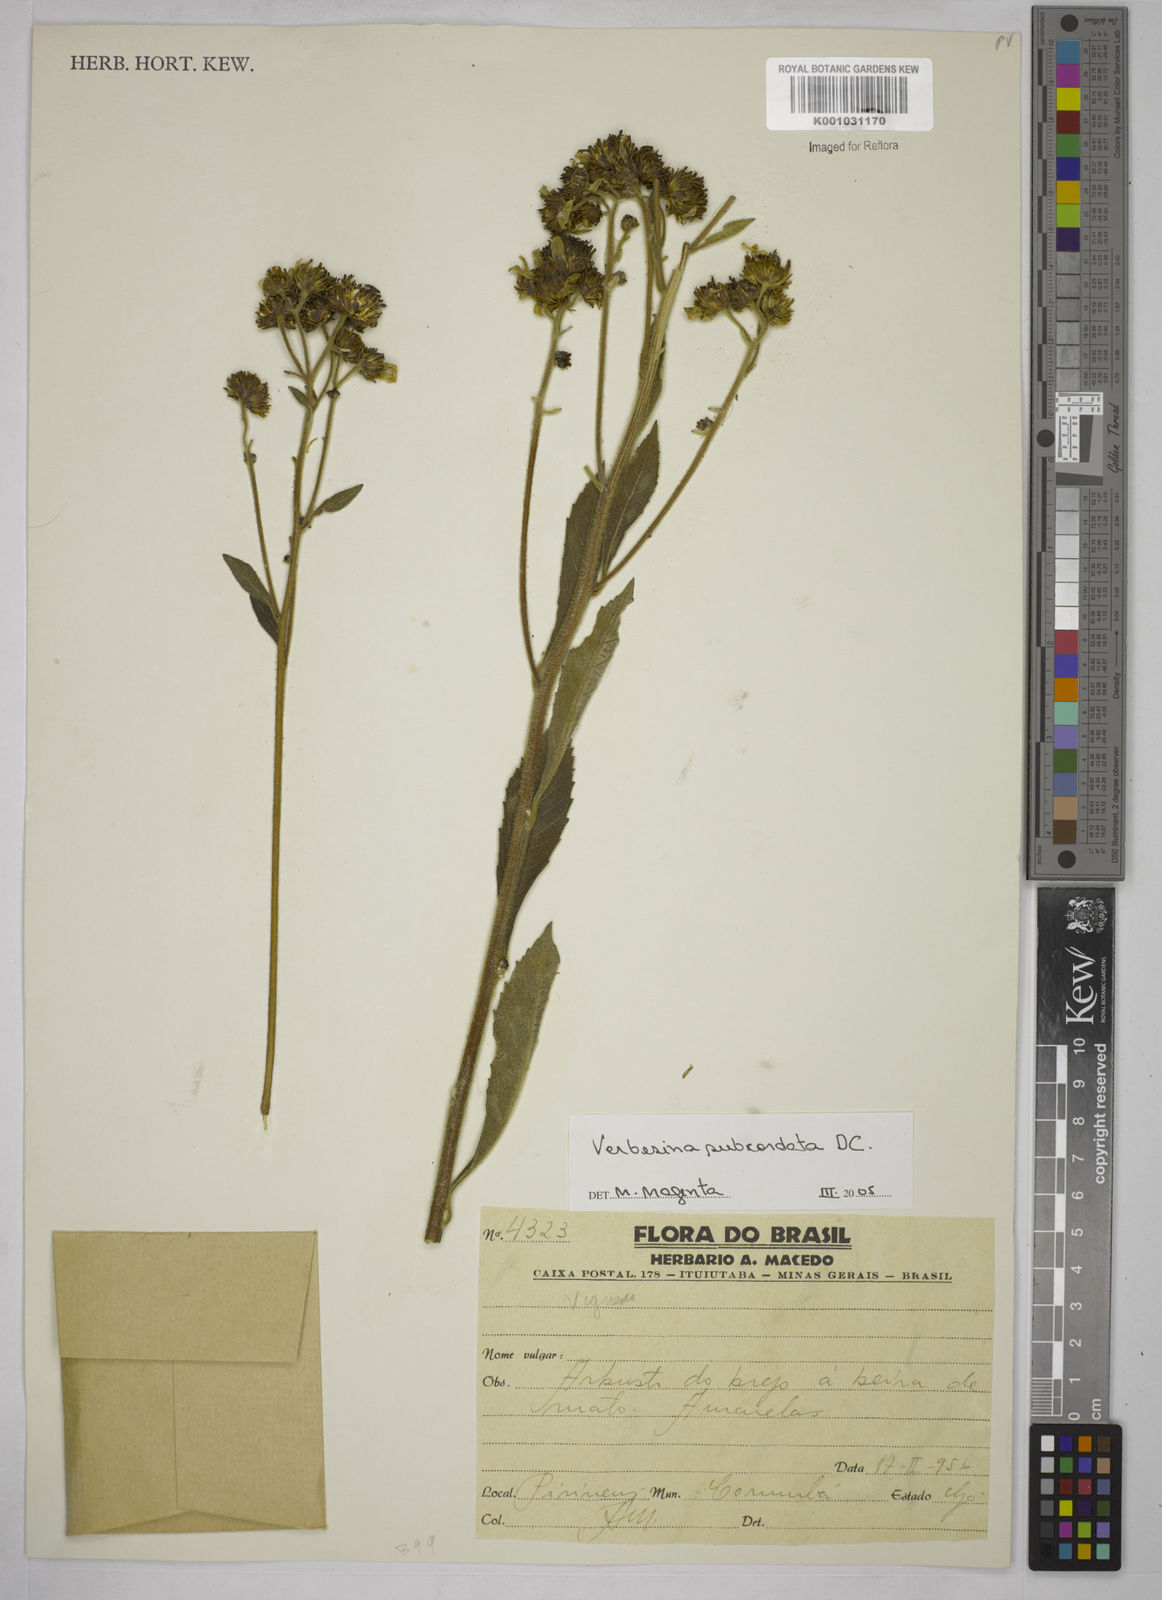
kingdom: Plantae
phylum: Tracheophyta
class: Magnoliopsida
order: Asterales
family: Asteraceae
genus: Verbesina
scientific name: Verbesina subcordata
